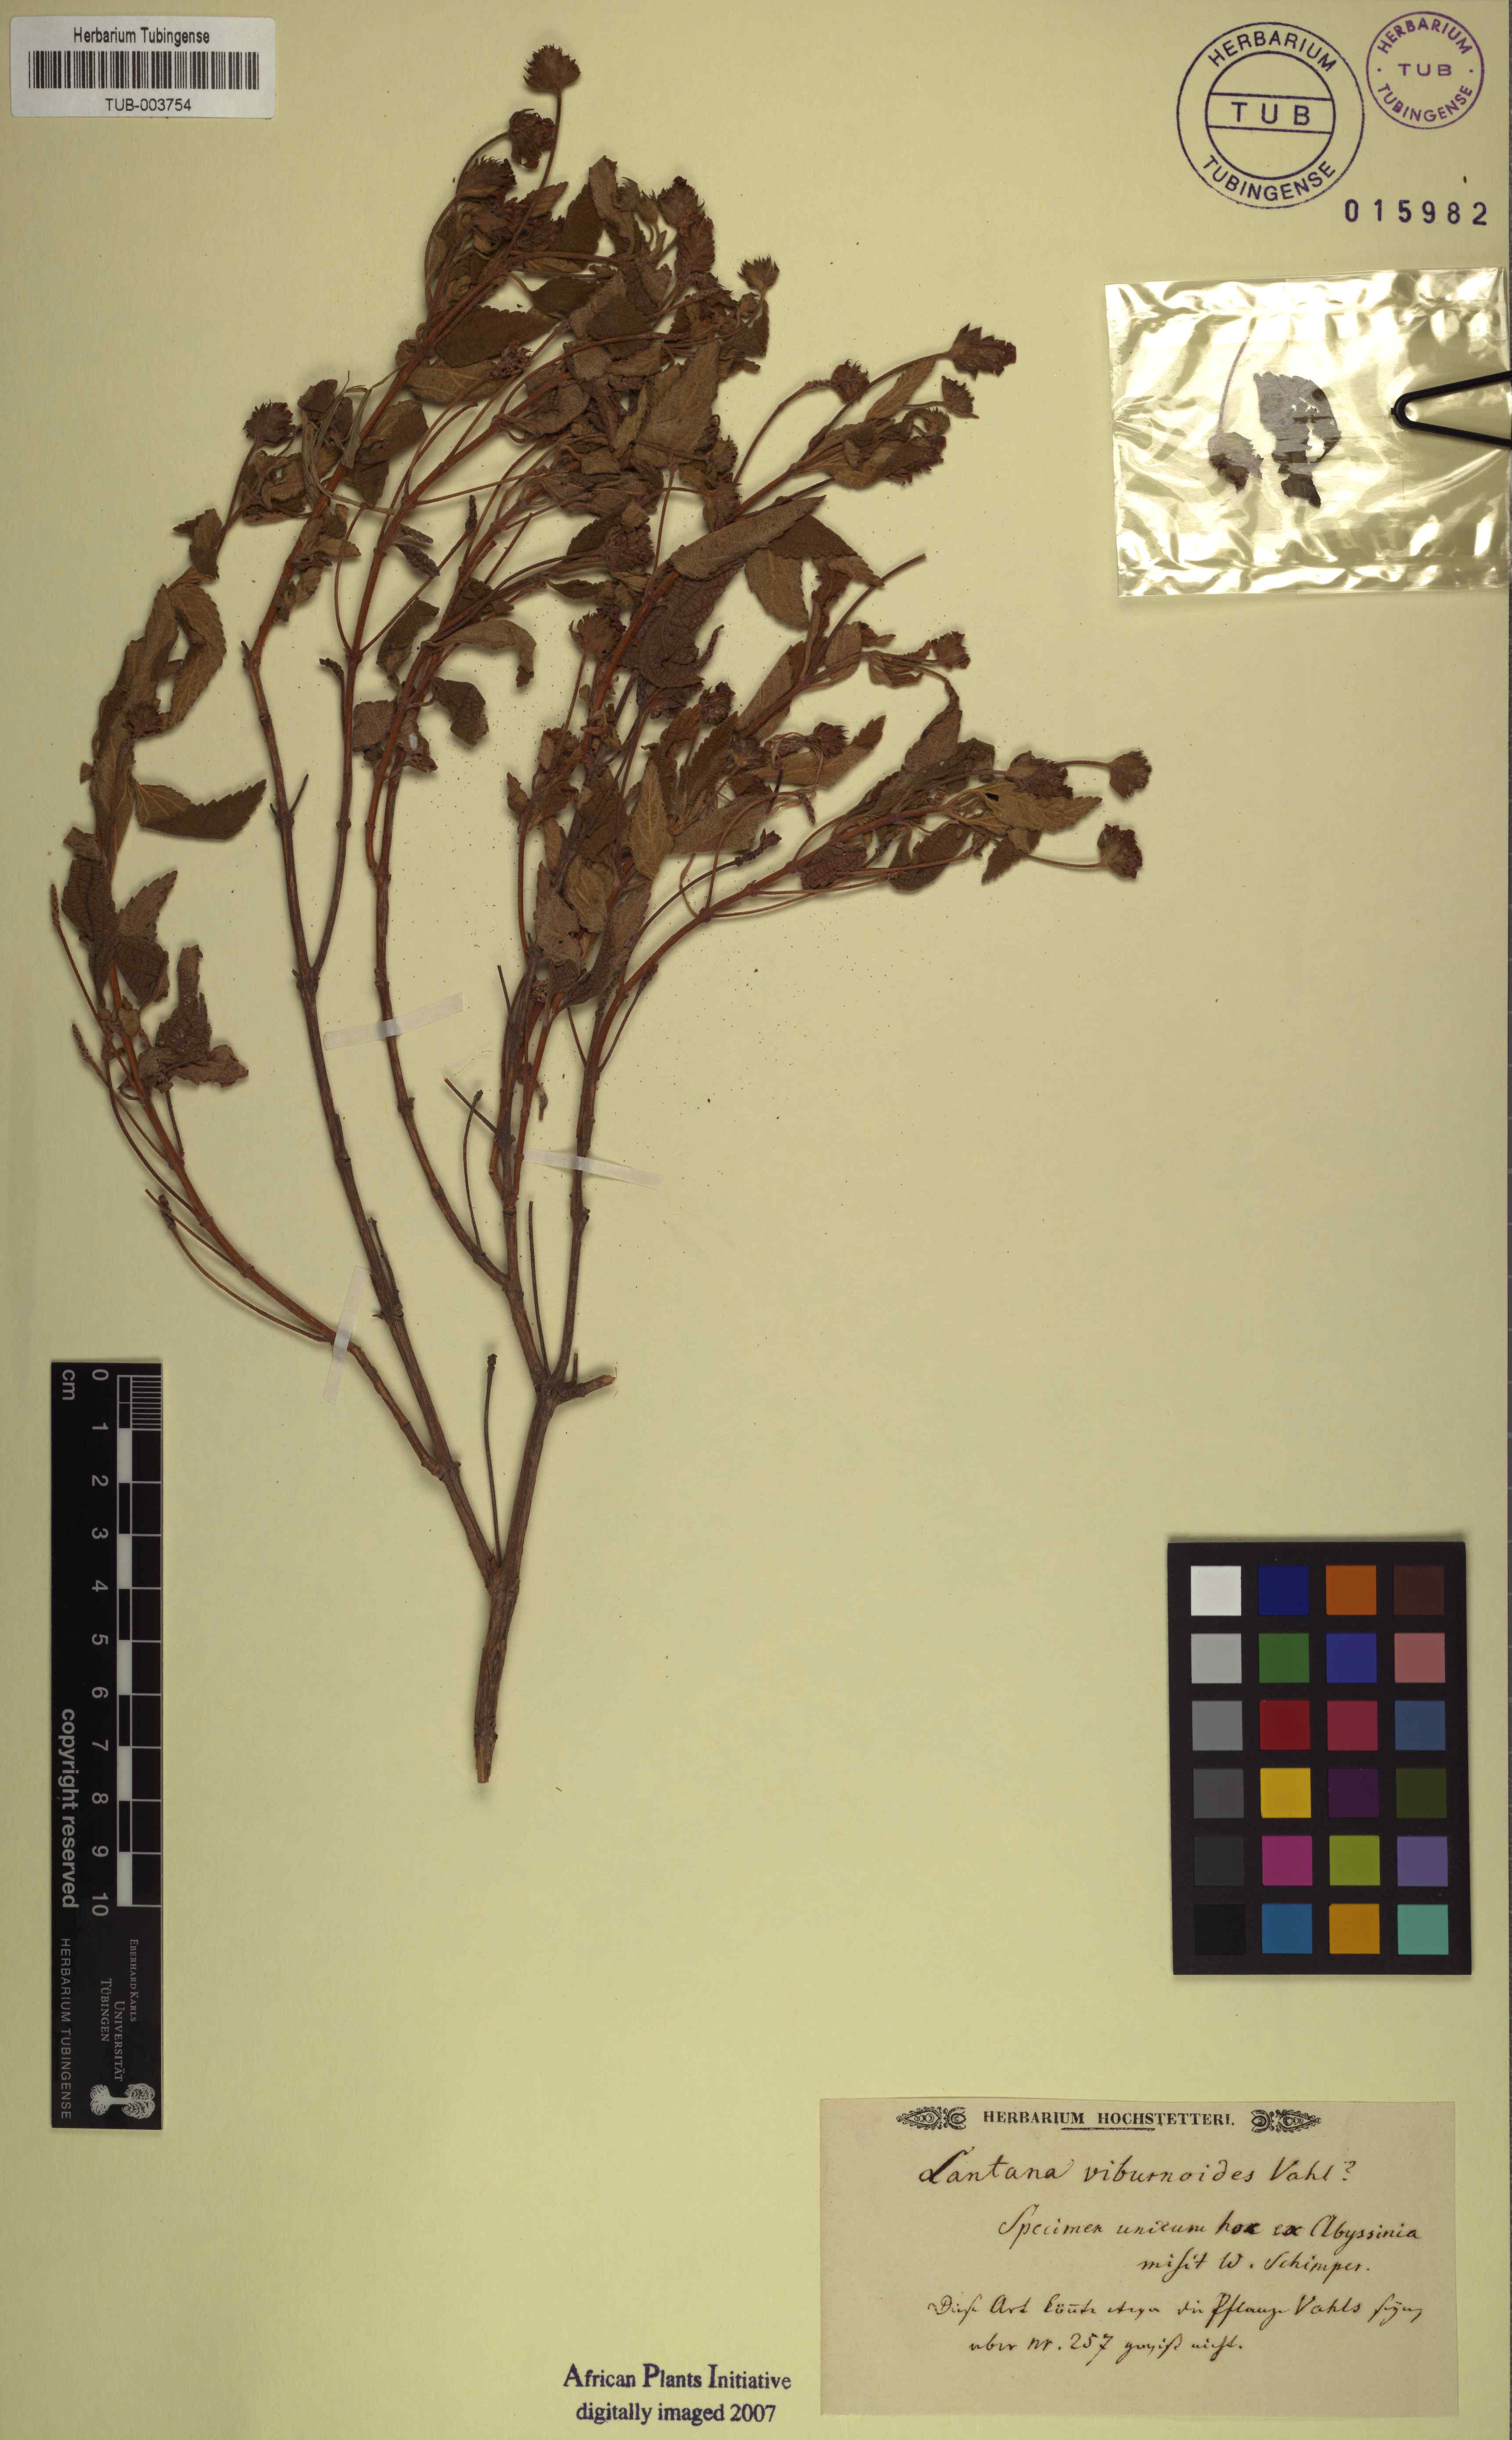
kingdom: Plantae
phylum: Tracheophyta
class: Magnoliopsida
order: Lamiales
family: Verbenaceae
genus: Lantana
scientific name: Lantana viburnoides
